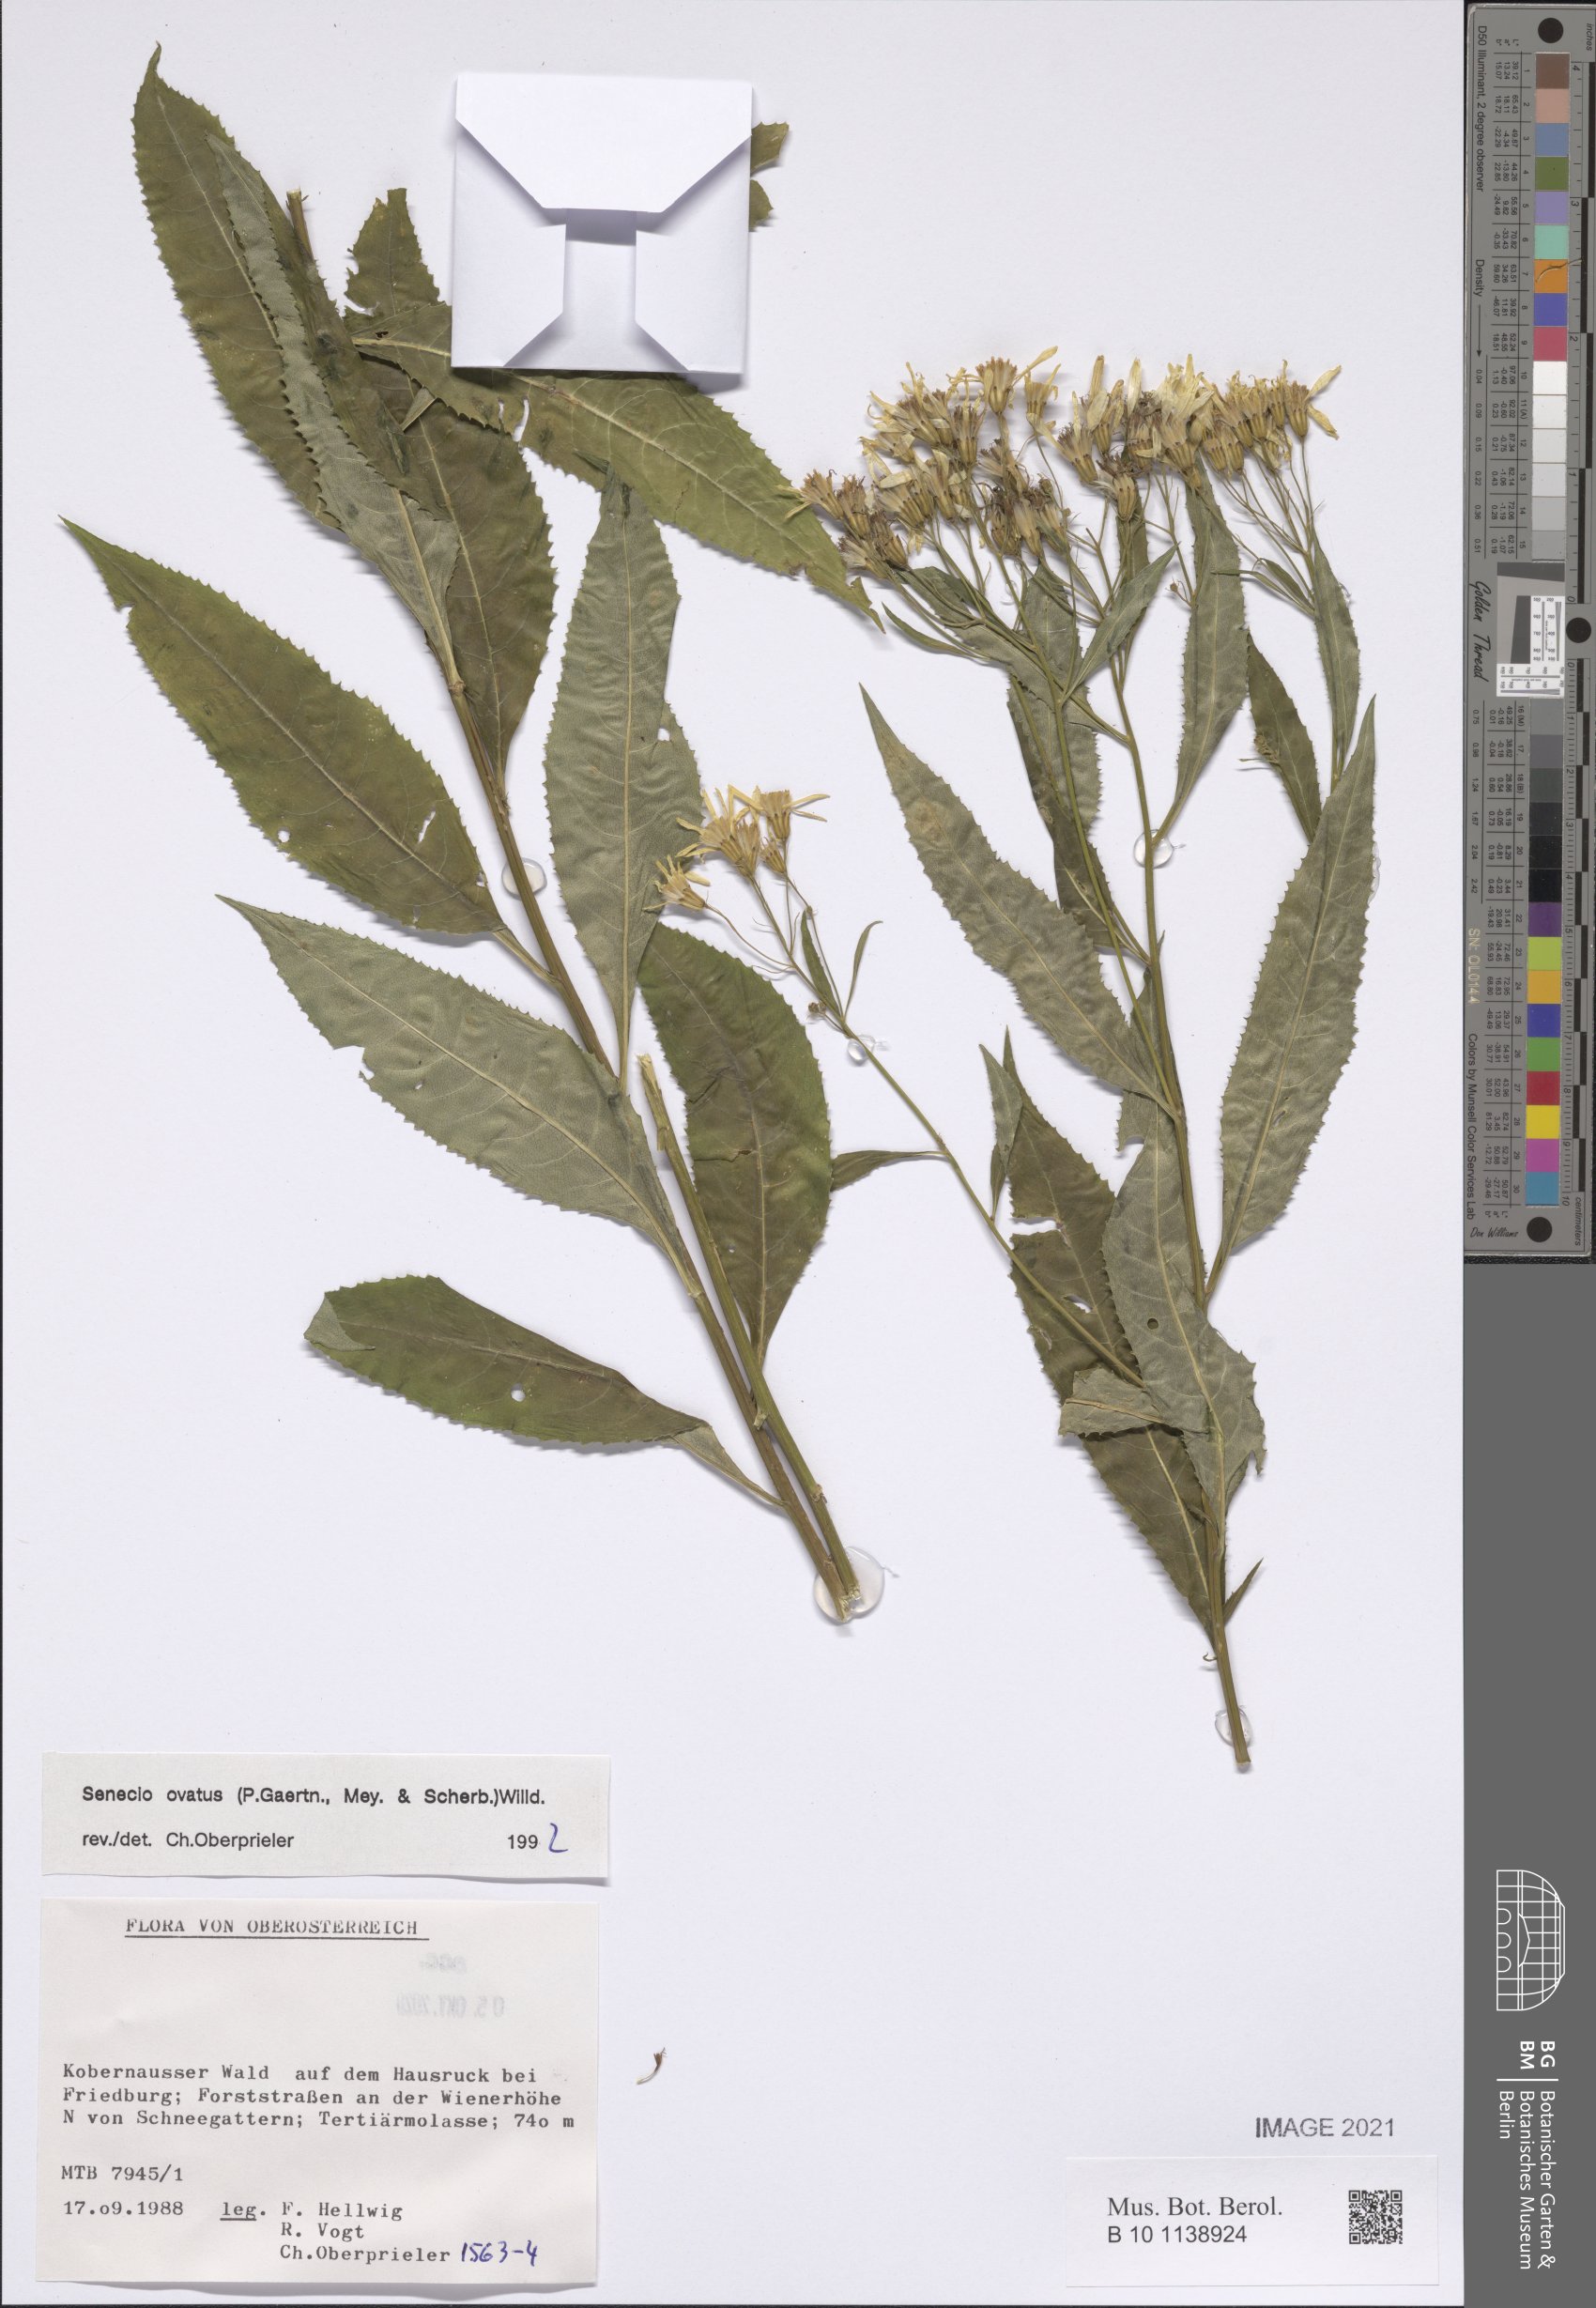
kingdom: Plantae
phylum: Tracheophyta
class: Magnoliopsida
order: Asterales
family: Asteraceae
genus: Senecio
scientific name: Senecio ovatus
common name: Wood ragwort
